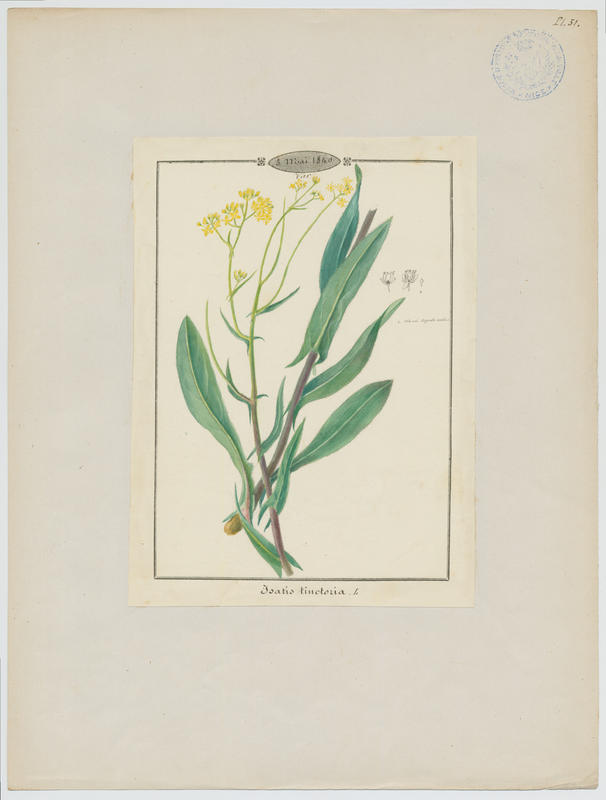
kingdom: Plantae
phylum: Tracheophyta
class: Magnoliopsida
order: Brassicales
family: Brassicaceae
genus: Isatis
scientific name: Isatis tinctoria
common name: Woad
